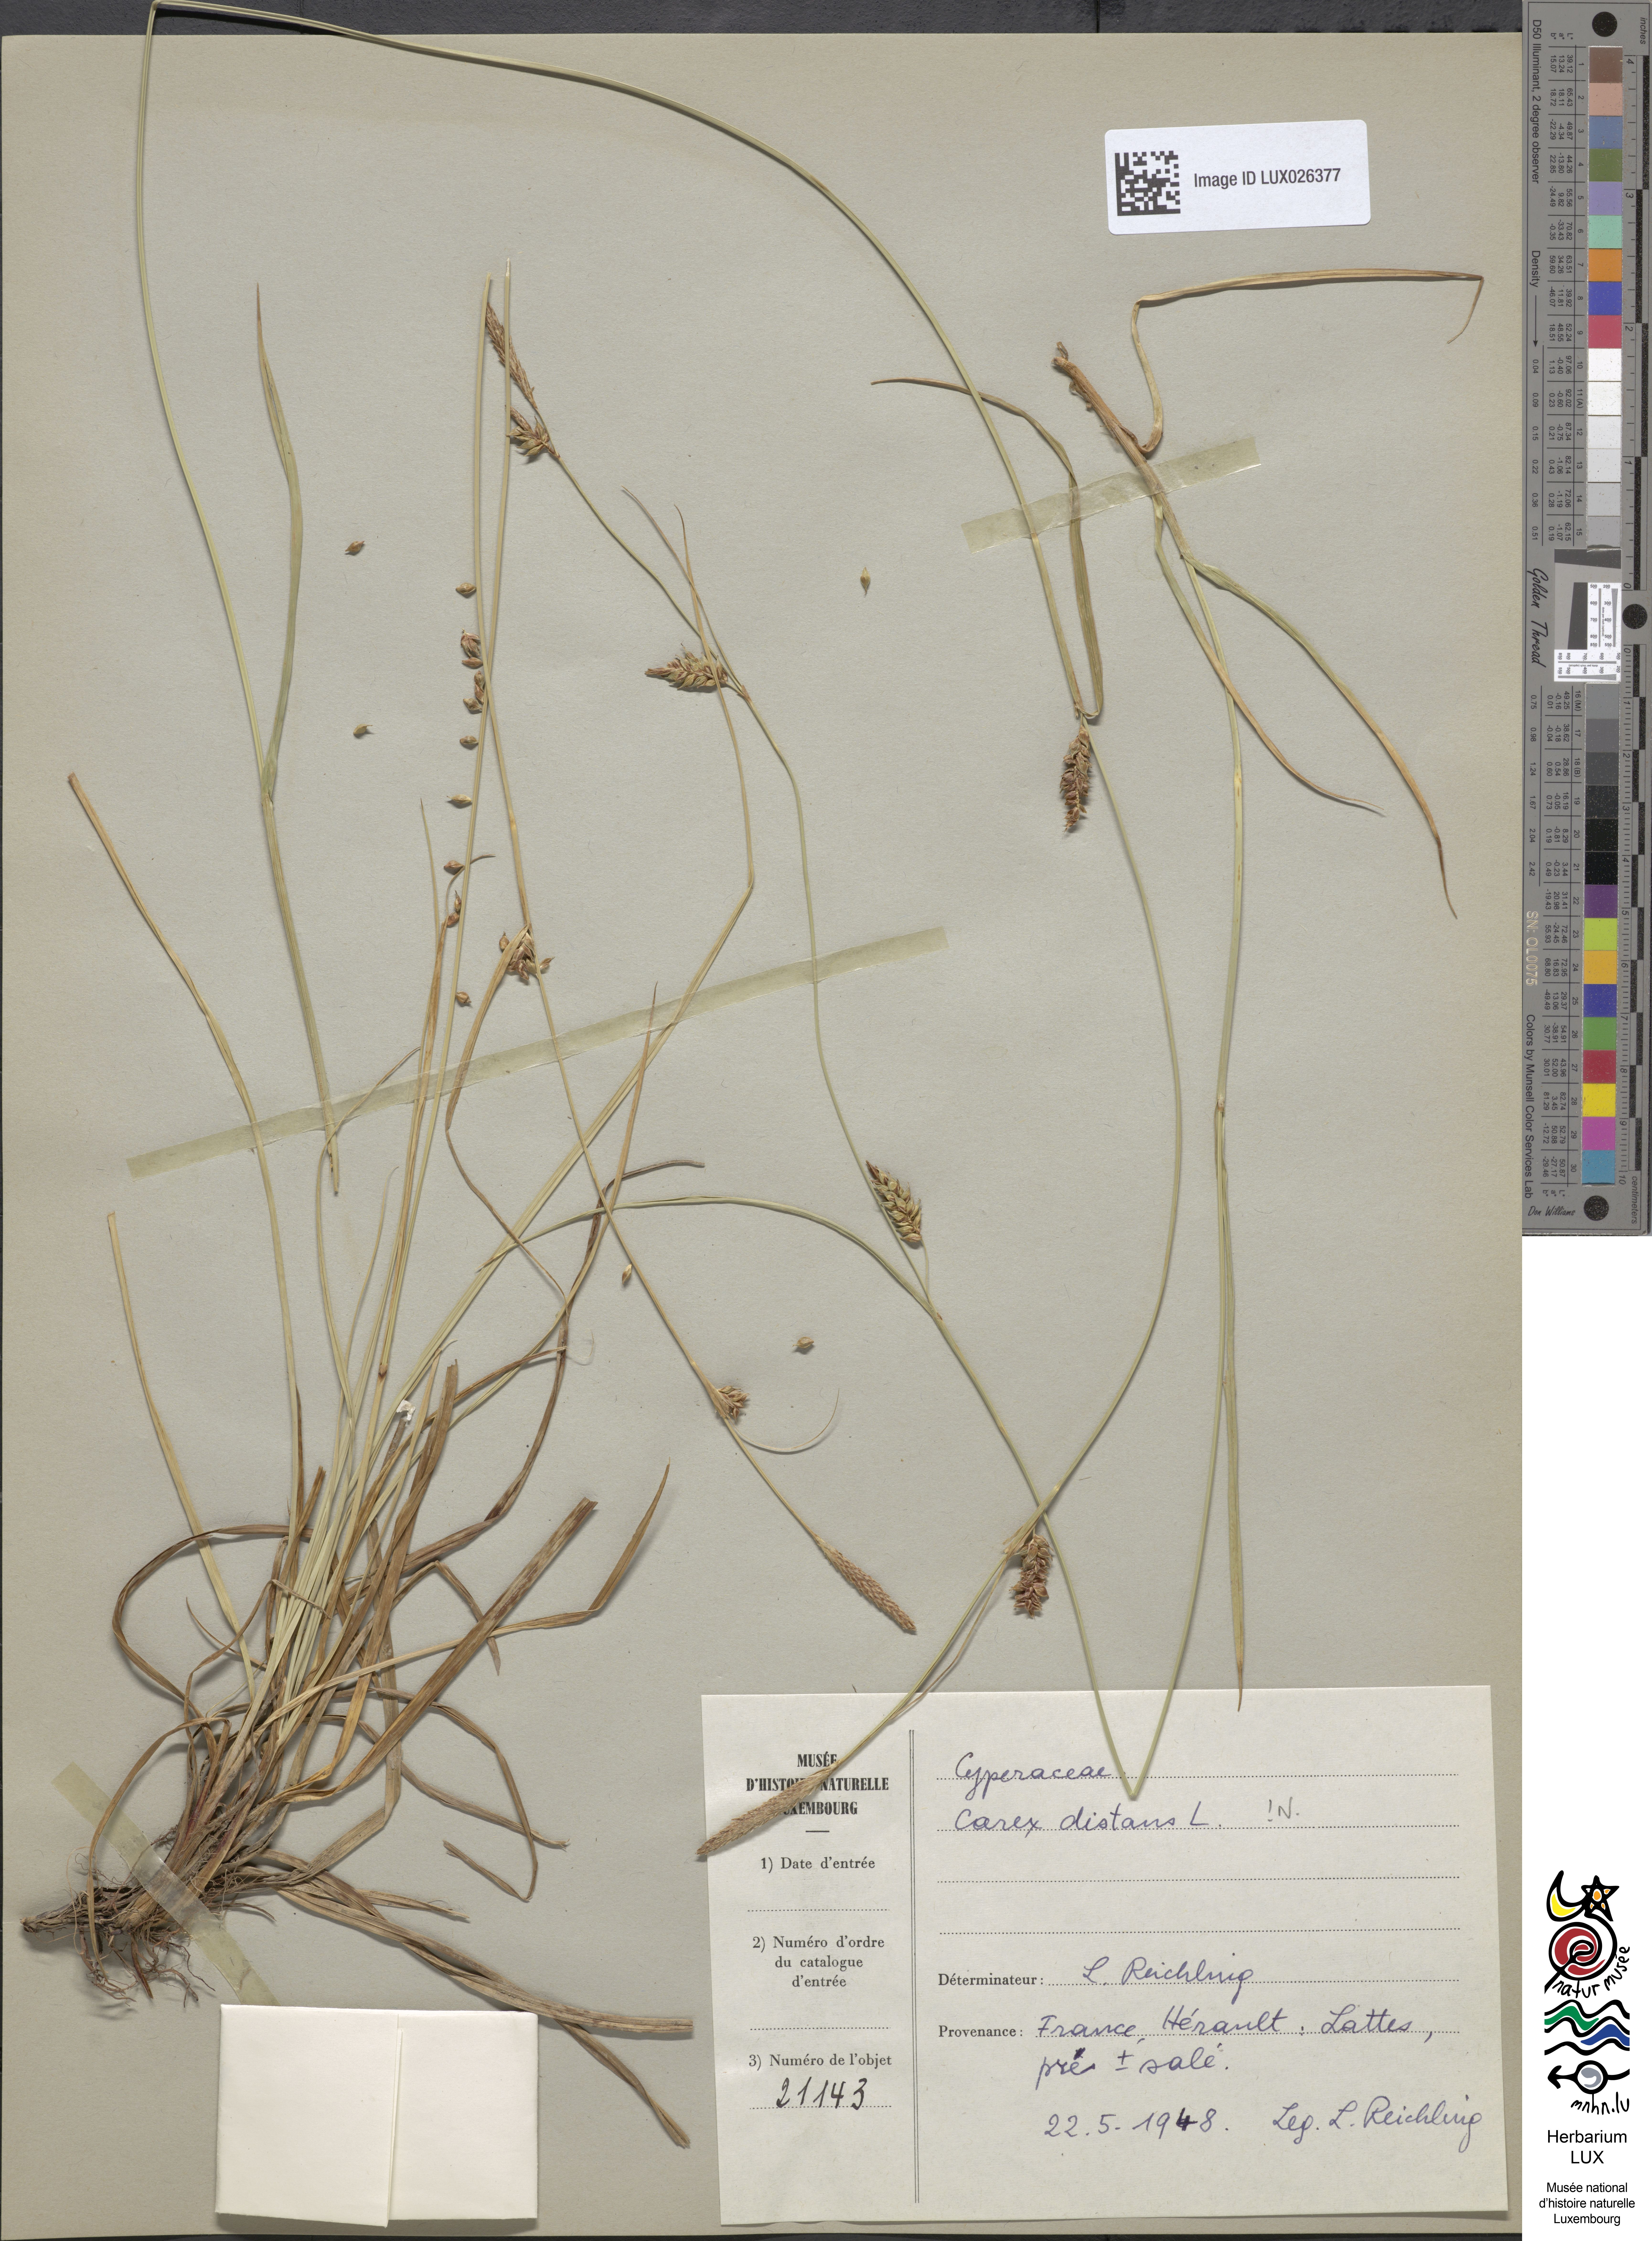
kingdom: Plantae
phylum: Tracheophyta
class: Liliopsida
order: Poales
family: Cyperaceae
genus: Carex
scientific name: Carex distans
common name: Distant sedge
